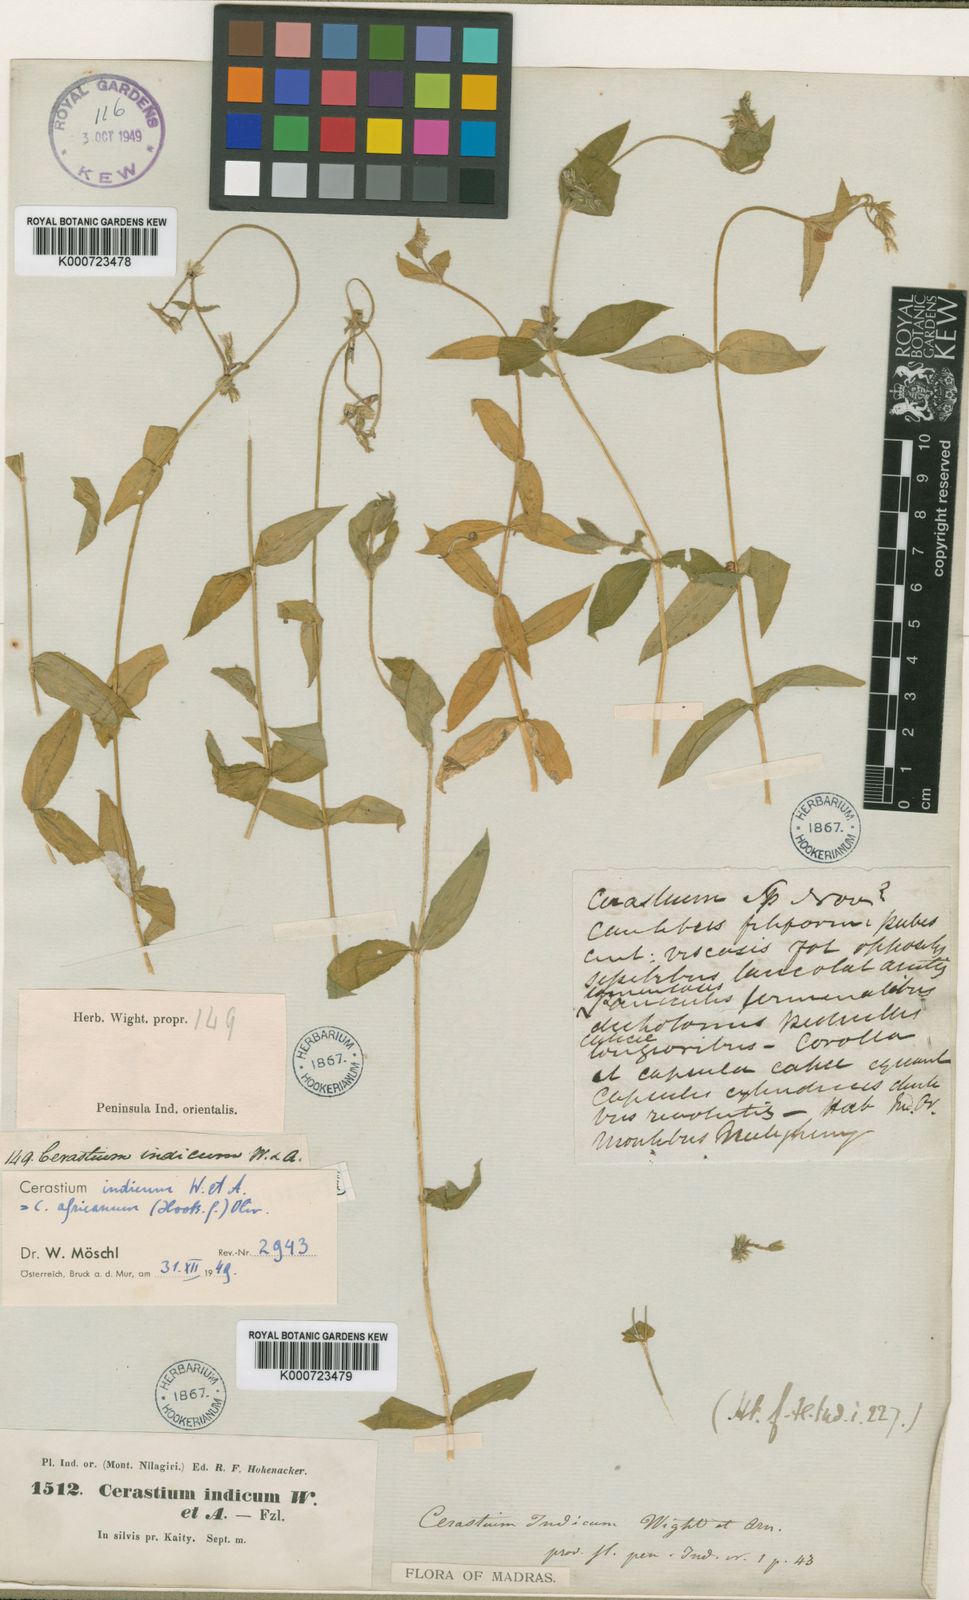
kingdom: Plantae
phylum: Tracheophyta
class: Magnoliopsida
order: Caryophyllales
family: Caryophyllaceae
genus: Cerastium
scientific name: Cerastium lanceolatum
